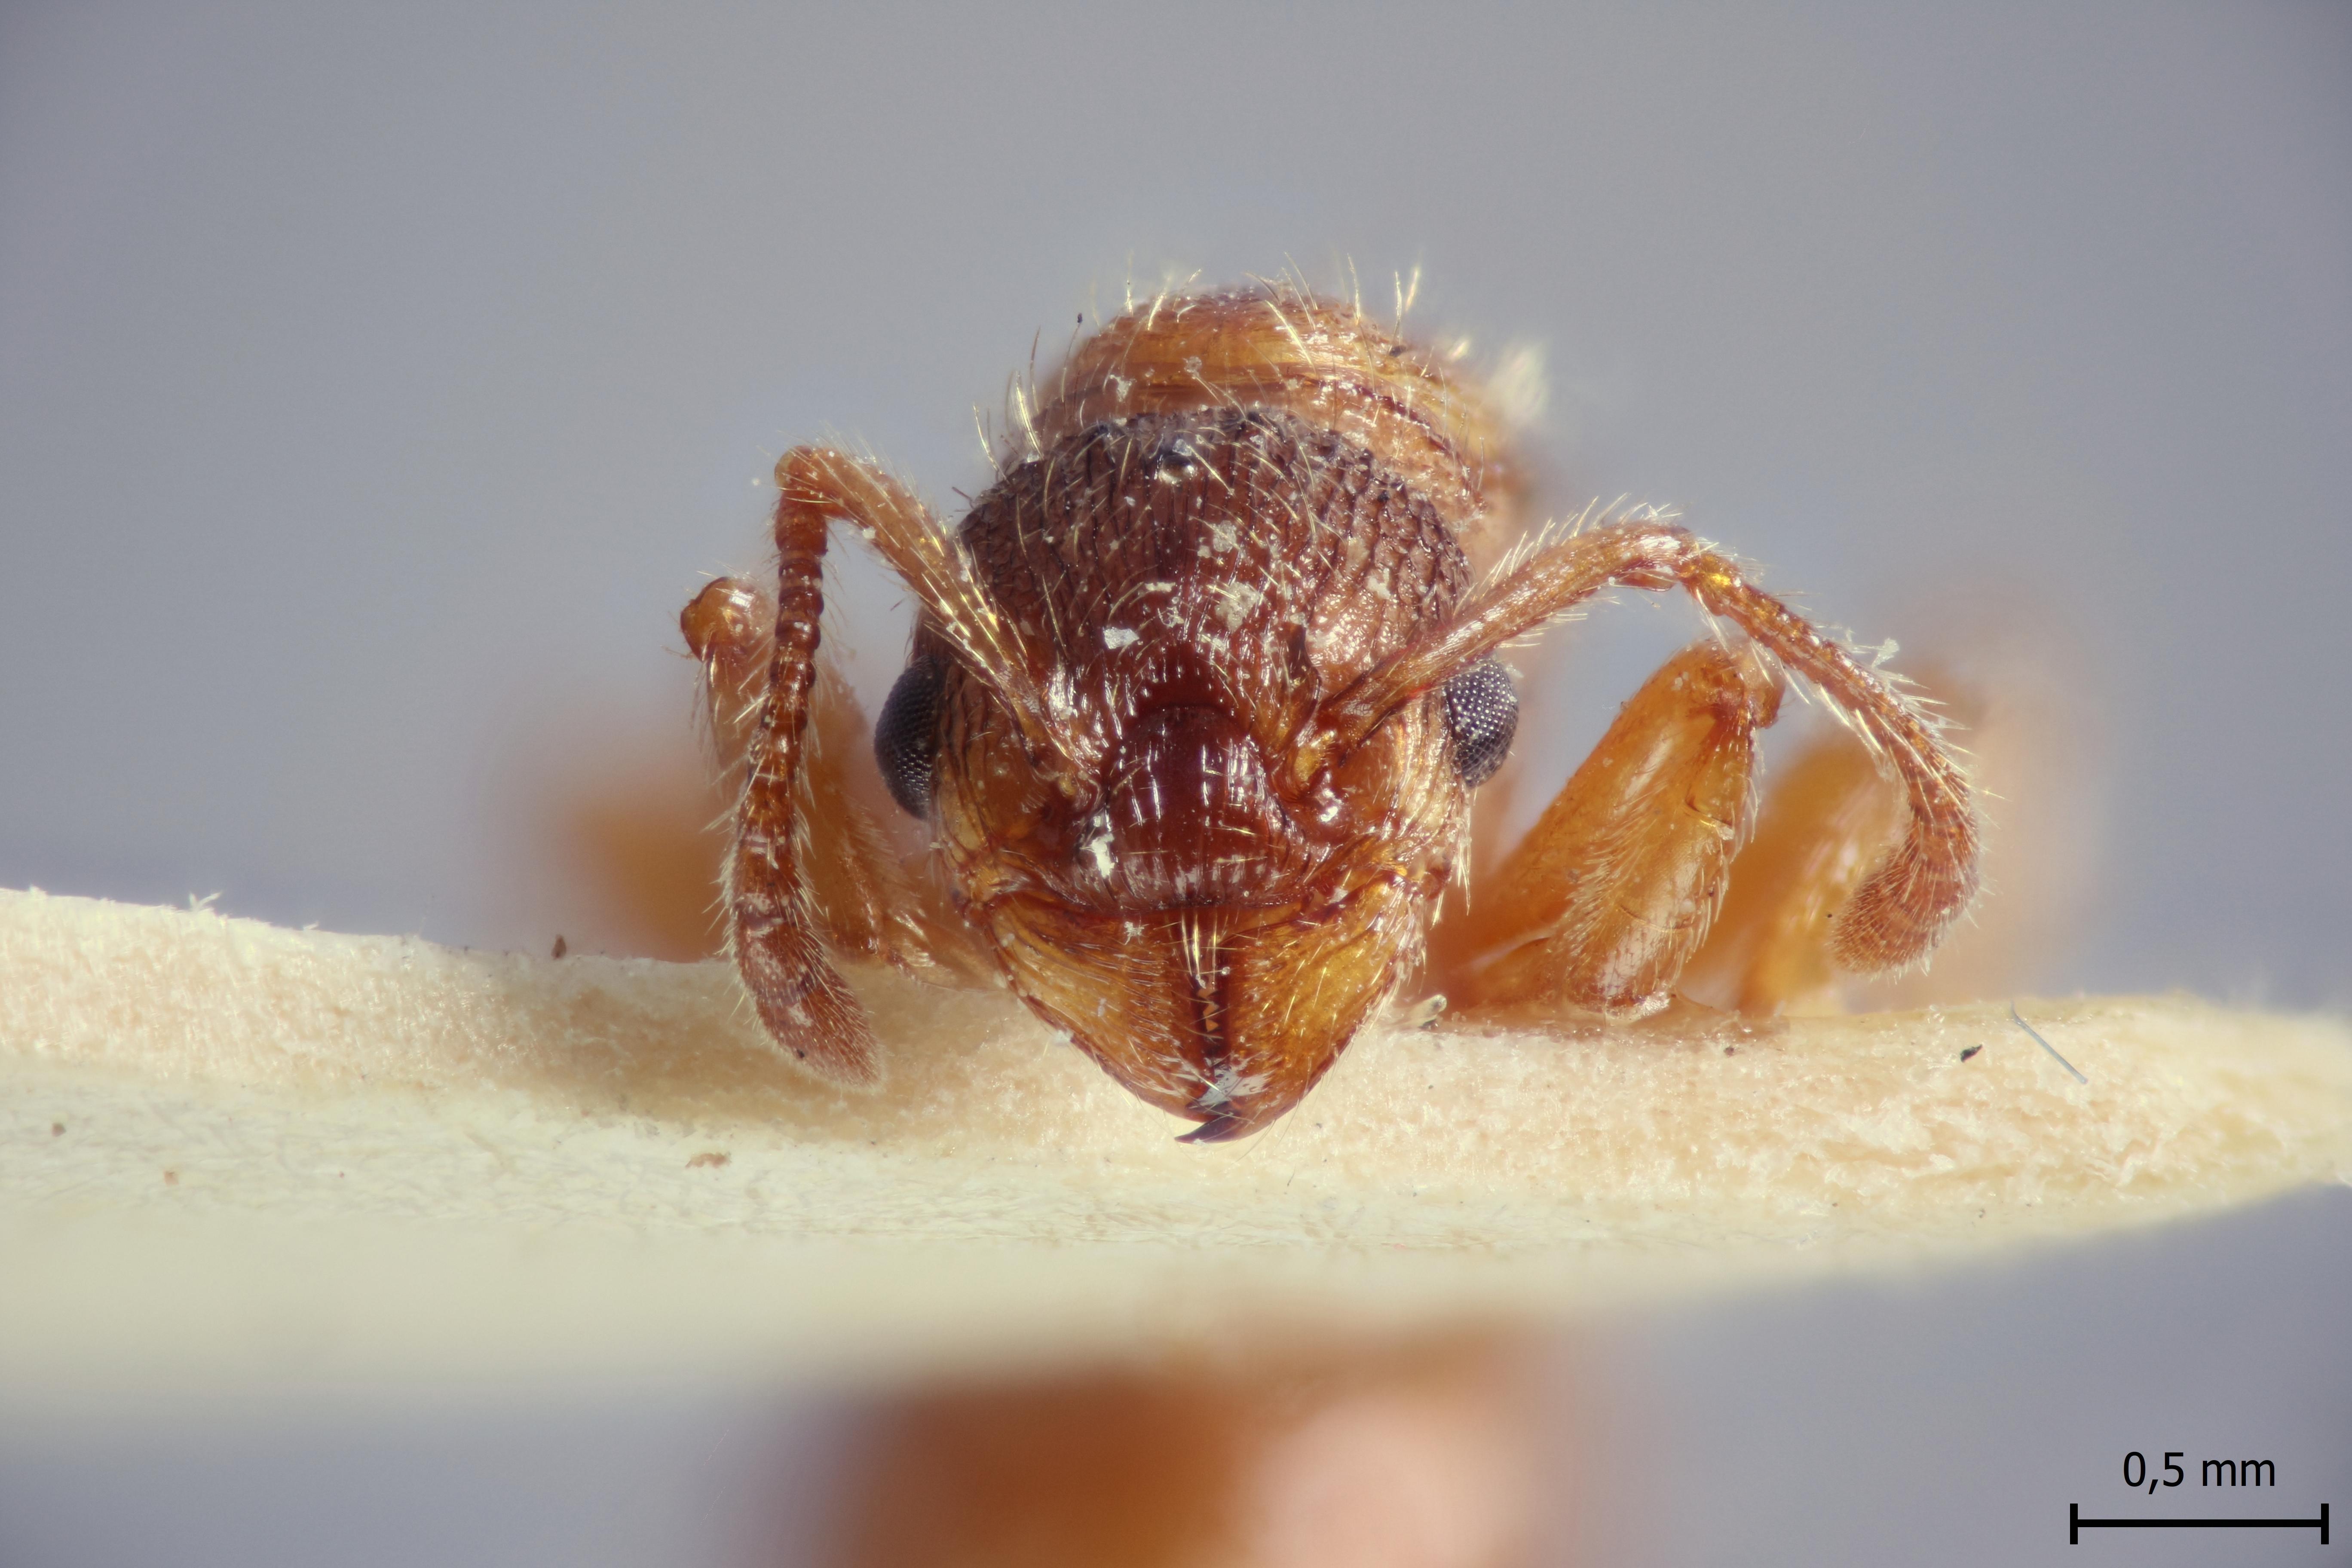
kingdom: Animalia
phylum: Arthropoda
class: Insecta
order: Hymenoptera
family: Formicidae
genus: Myrmica
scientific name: Myrmica
